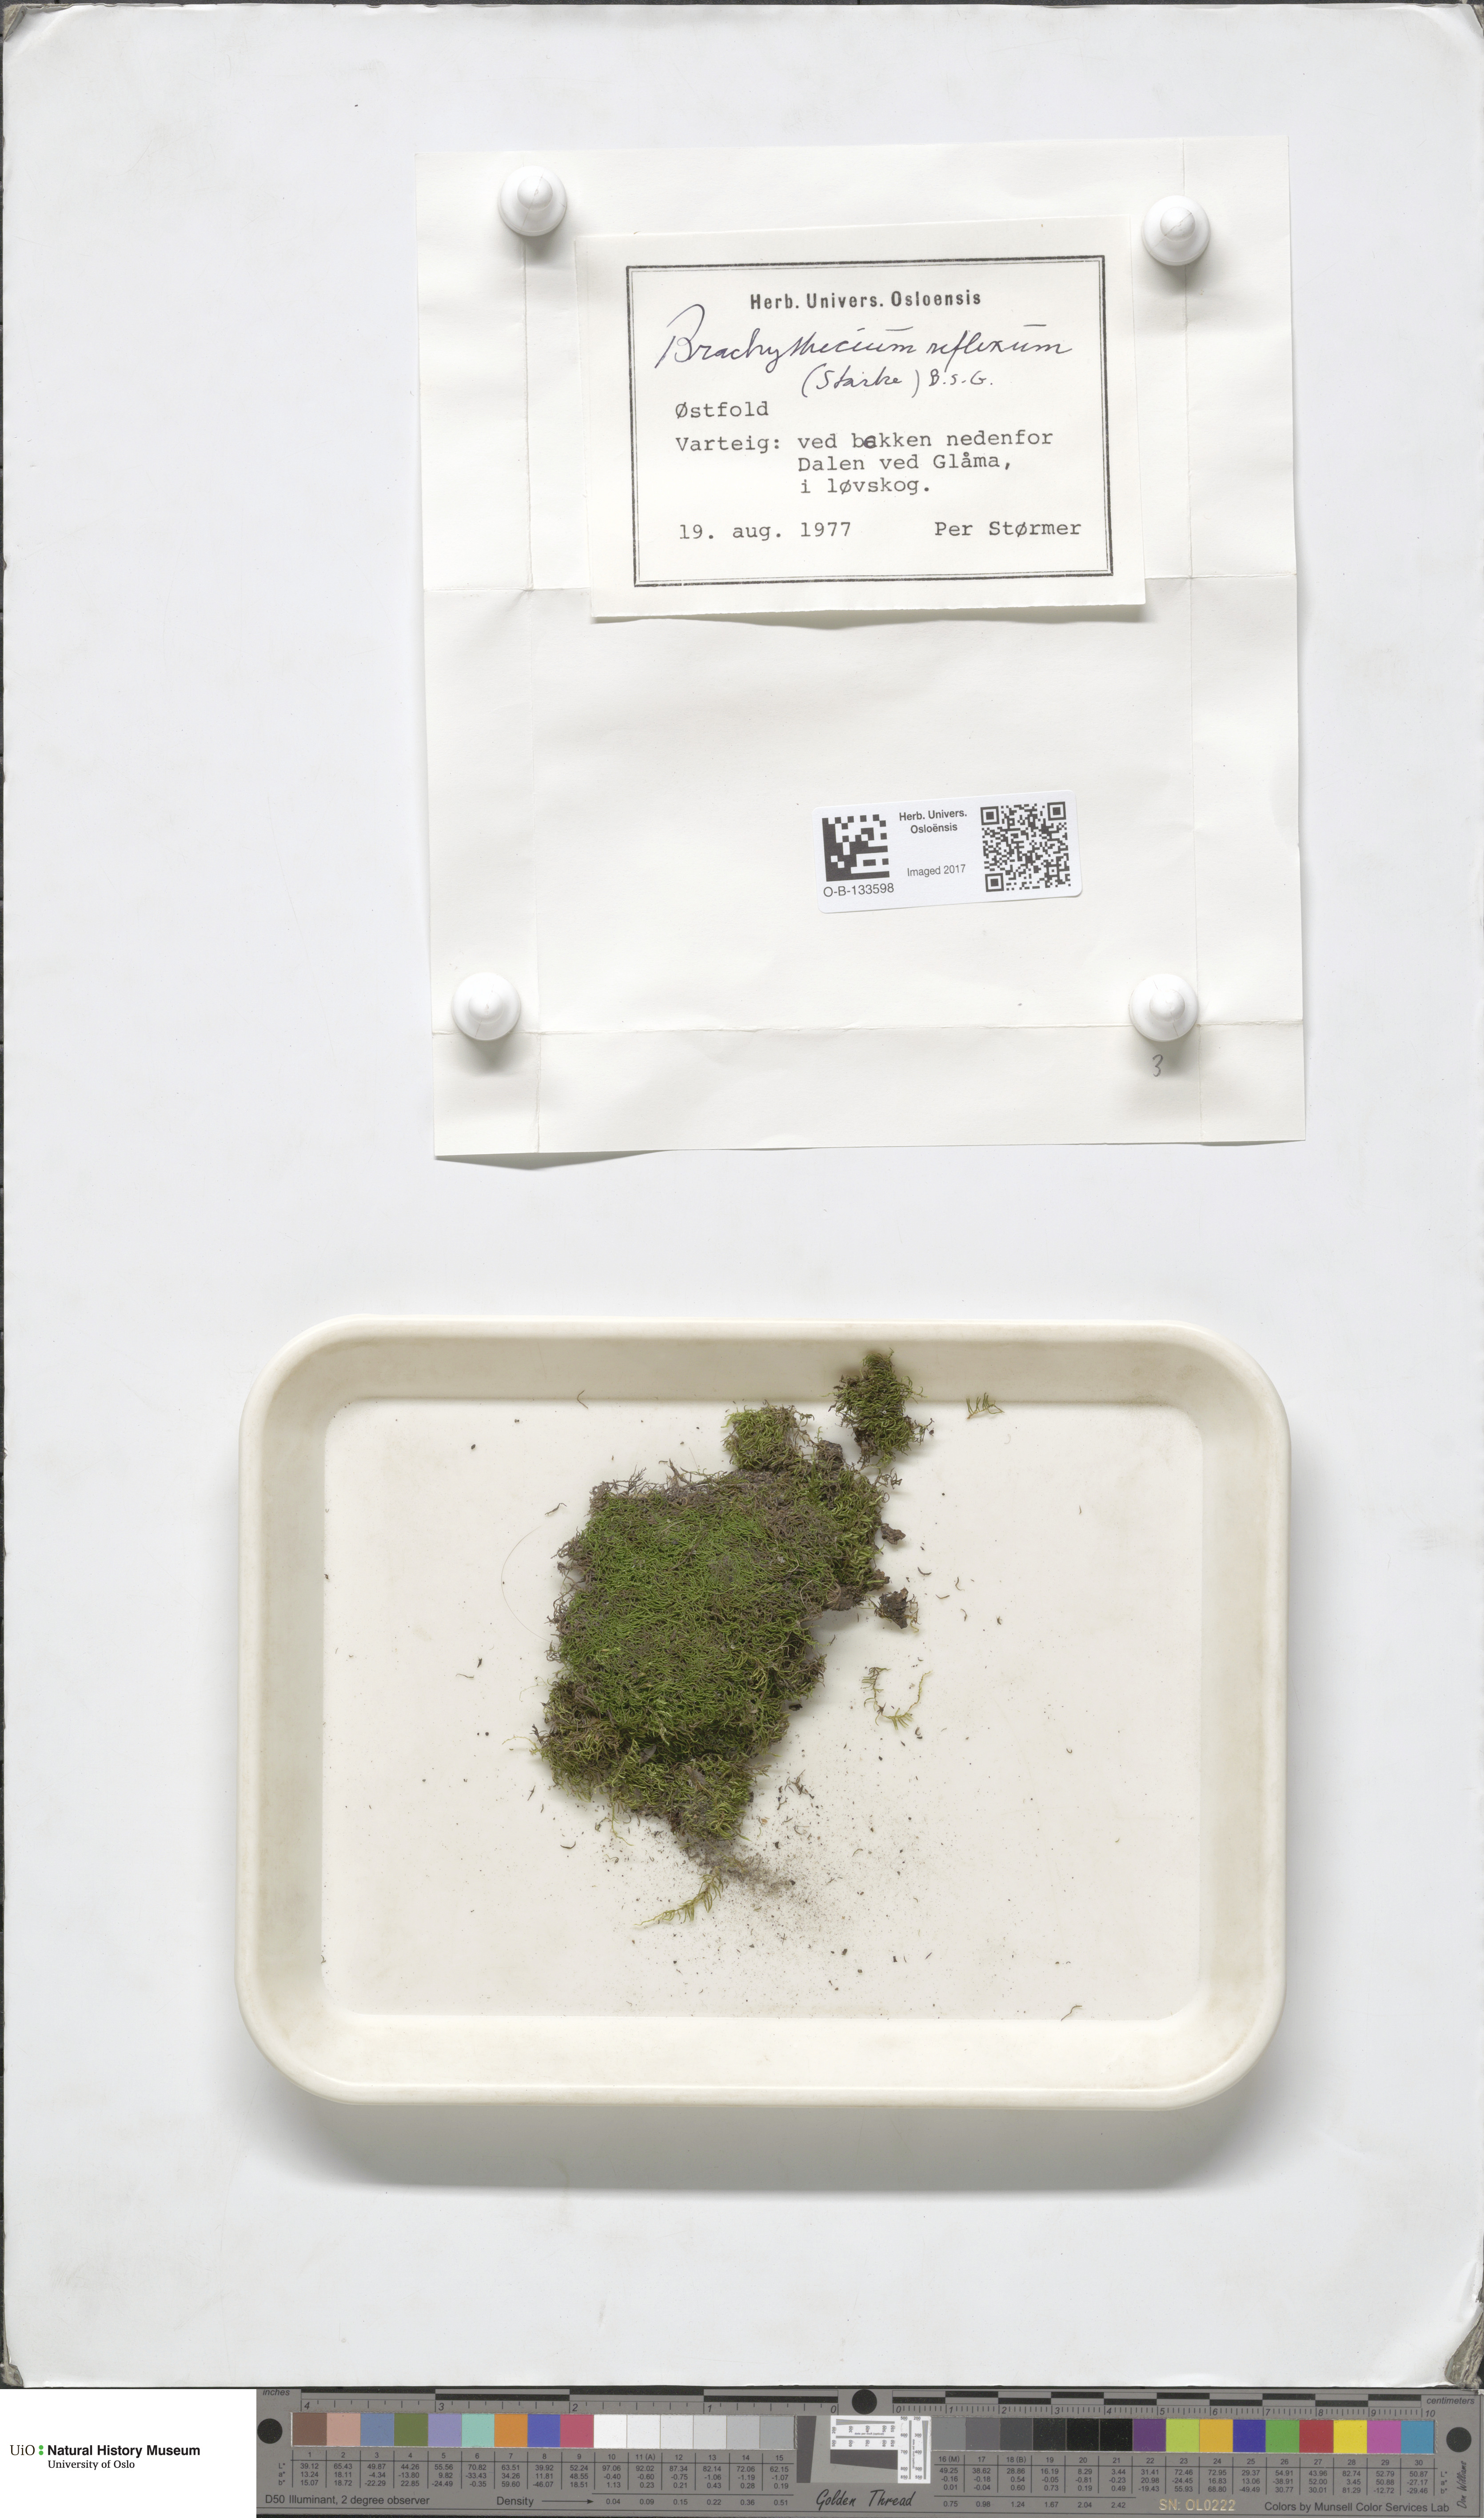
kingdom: Plantae
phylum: Bryophyta
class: Bryopsida
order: Hypnales
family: Brachytheciaceae
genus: Sciuro-hypnum
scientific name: Sciuro-hypnum reflexum
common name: Reflexed feather-moss
